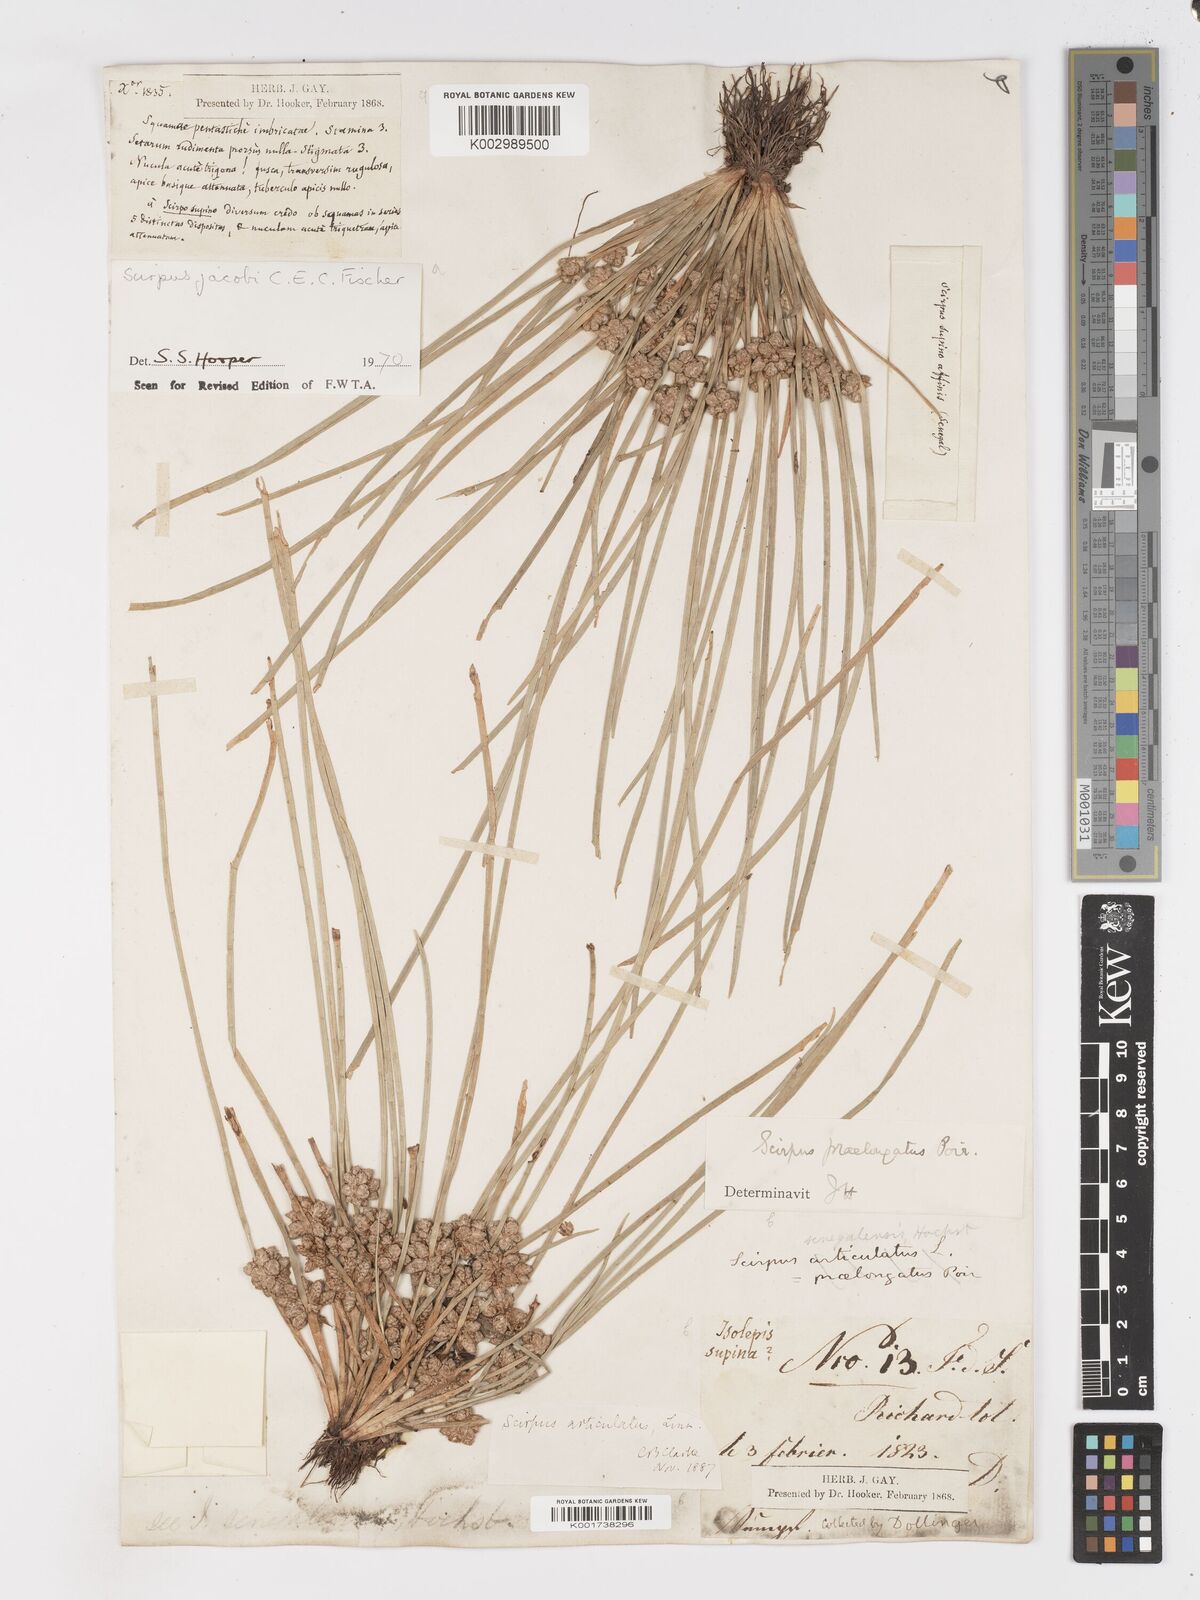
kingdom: Plantae
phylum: Tracheophyta
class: Liliopsida
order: Poales
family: Cyperaceae
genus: Schoenoplectiella
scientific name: Schoenoplectiella senegalensis
